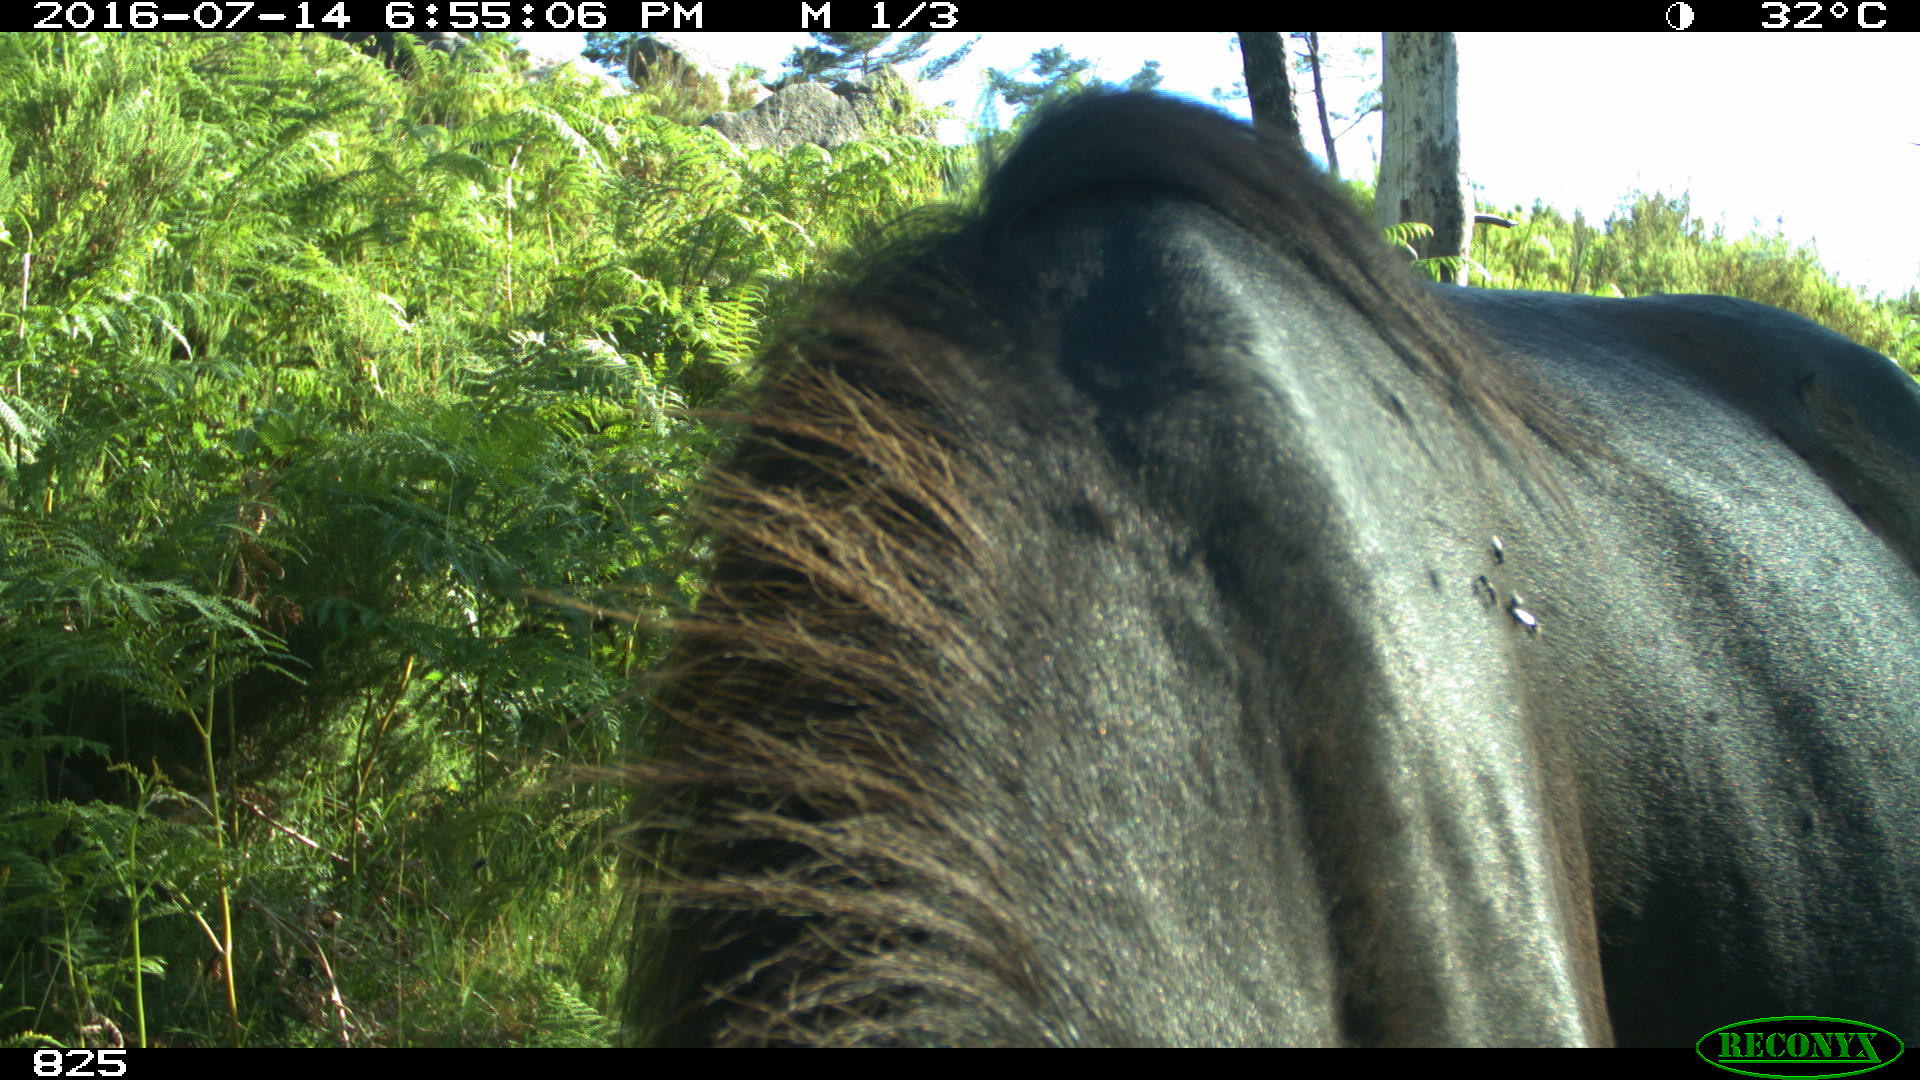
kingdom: Animalia
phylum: Chordata
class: Mammalia
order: Perissodactyla
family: Equidae
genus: Equus
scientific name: Equus caballus
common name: Horse
